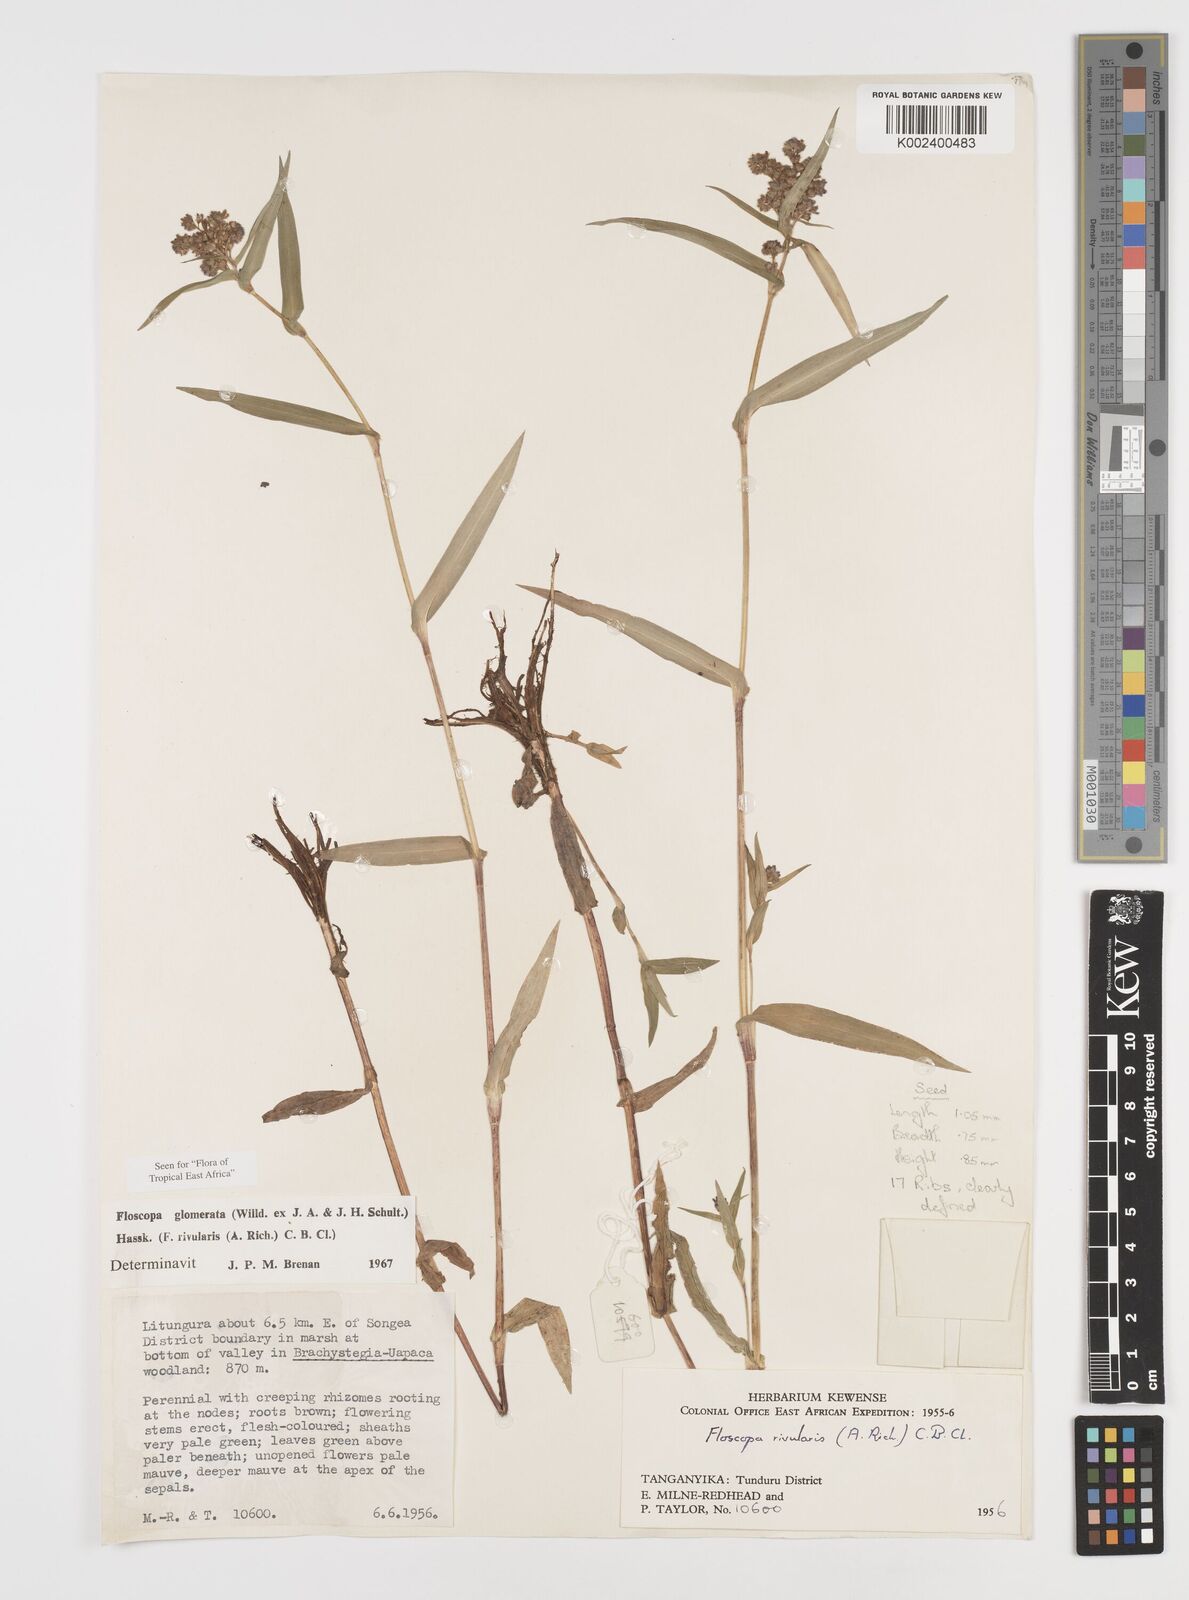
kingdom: Plantae
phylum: Tracheophyta
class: Liliopsida
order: Commelinales
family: Commelinaceae
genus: Floscopa
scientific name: Floscopa glomerata
